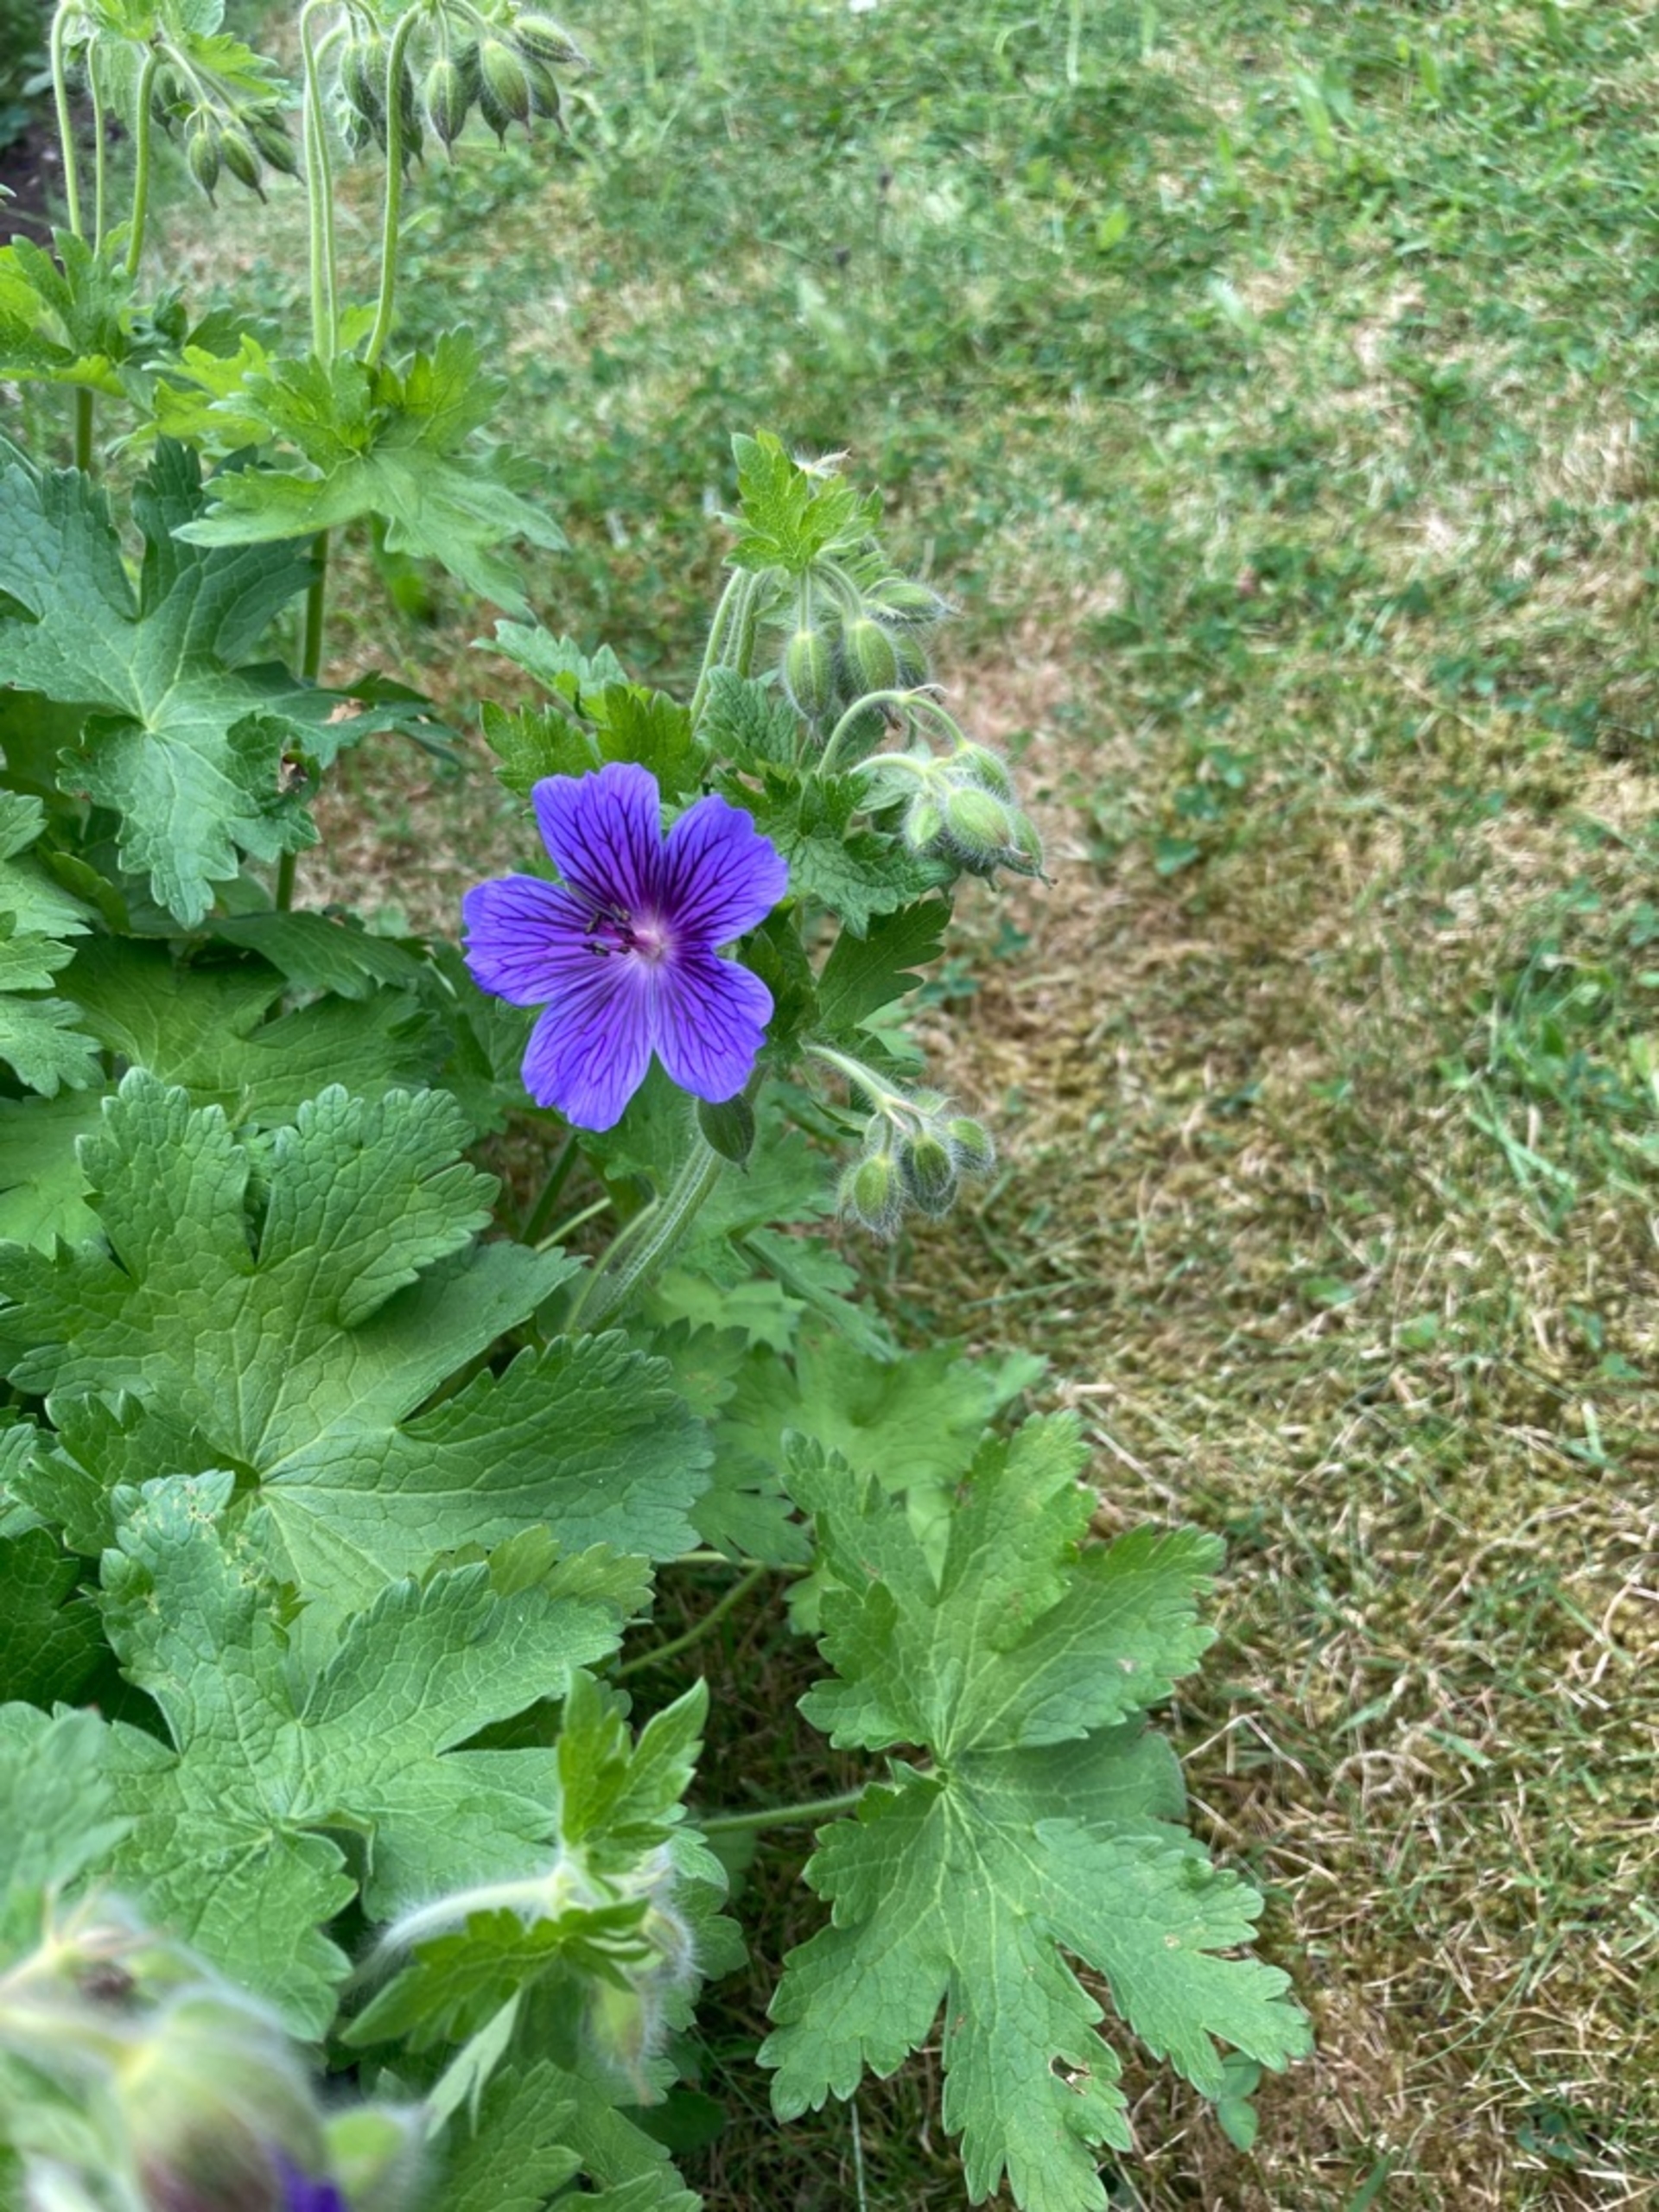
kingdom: Plantae
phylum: Tracheophyta
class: Magnoliopsida
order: Geraniales
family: Geraniaceae
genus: Geranium
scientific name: Geranium magnificum
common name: Hybrid-storkenæb
